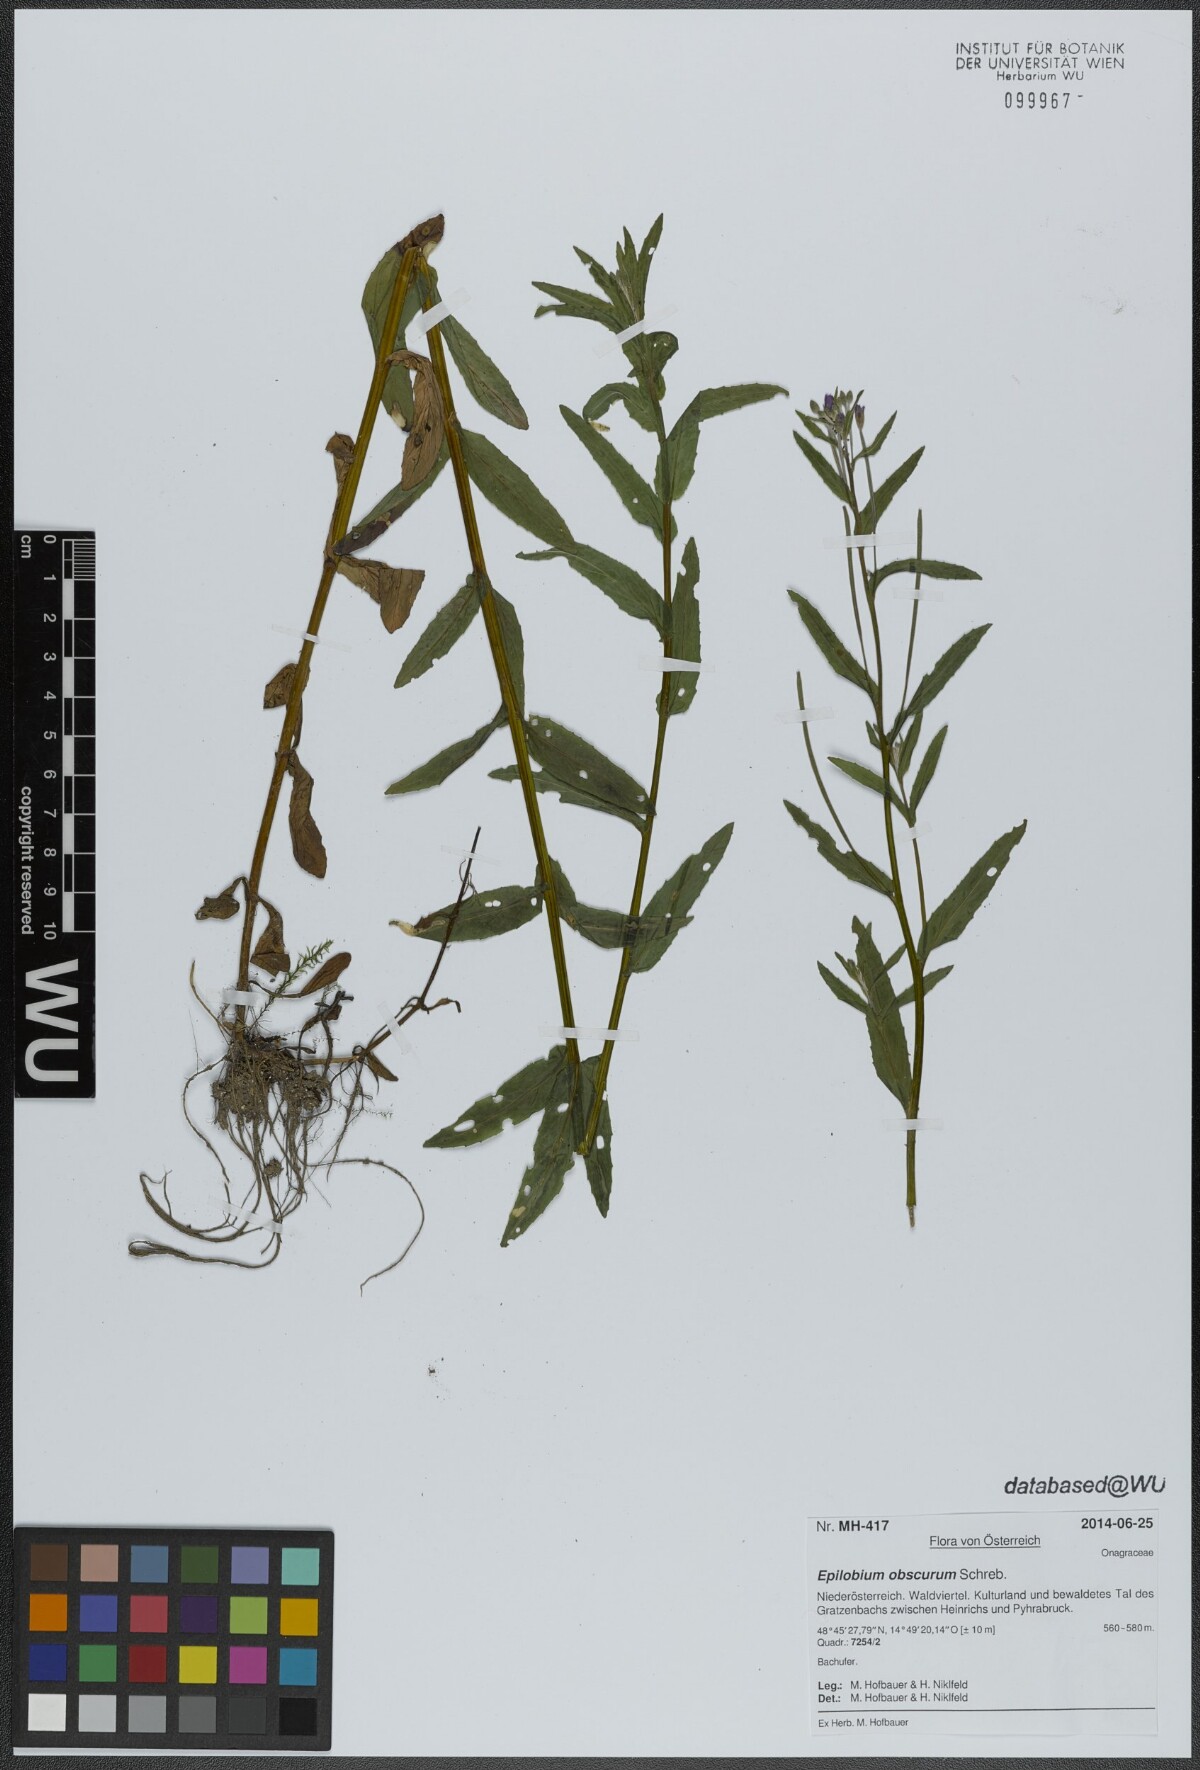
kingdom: Plantae
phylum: Tracheophyta
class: Magnoliopsida
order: Myrtales
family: Onagraceae
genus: Epilobium
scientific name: Epilobium obscurum
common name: Short-fruited willowherb
